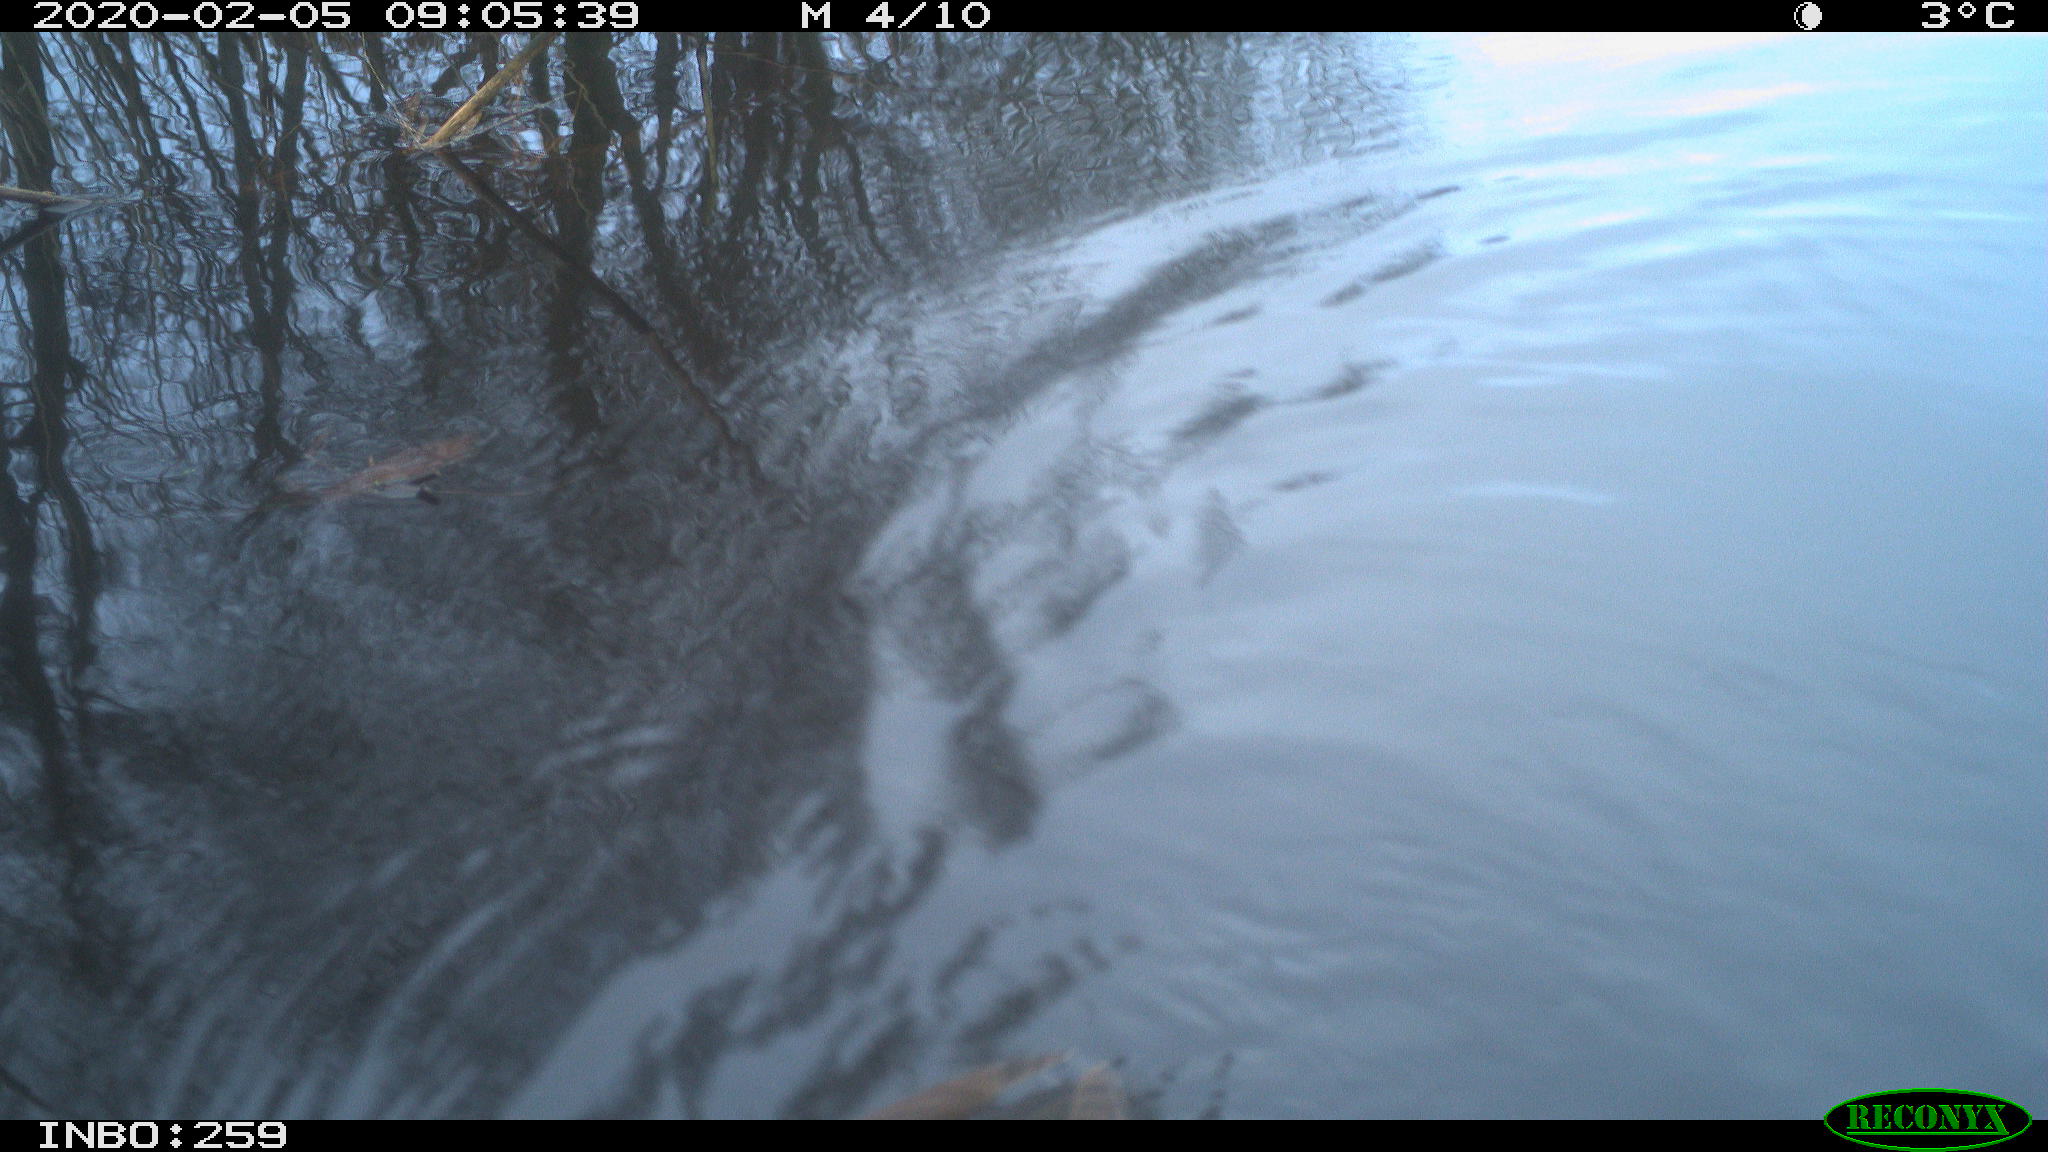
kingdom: Animalia
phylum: Chordata
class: Aves
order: Gruiformes
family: Rallidae
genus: Gallinula
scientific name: Gallinula chloropus
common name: Common moorhen
